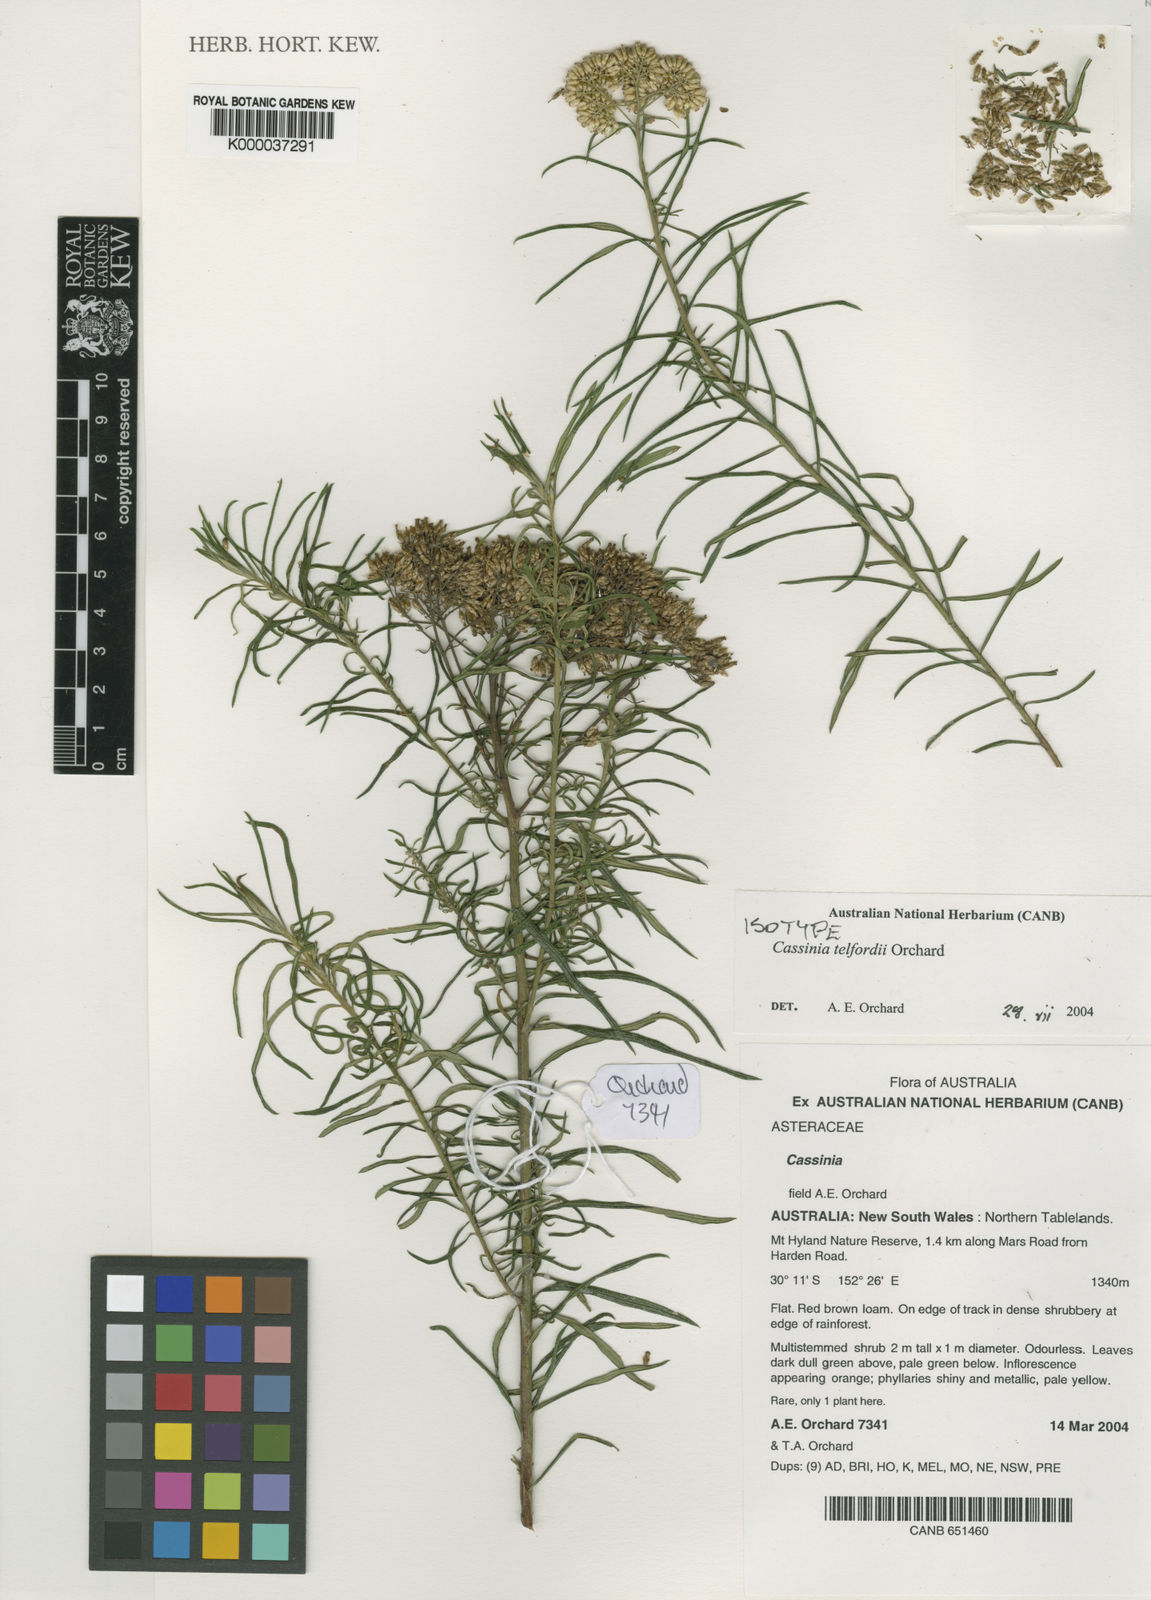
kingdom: Plantae
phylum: Tracheophyta
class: Magnoliopsida
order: Asterales
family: Asteraceae
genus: Cassinia
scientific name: Cassinia telfordii
